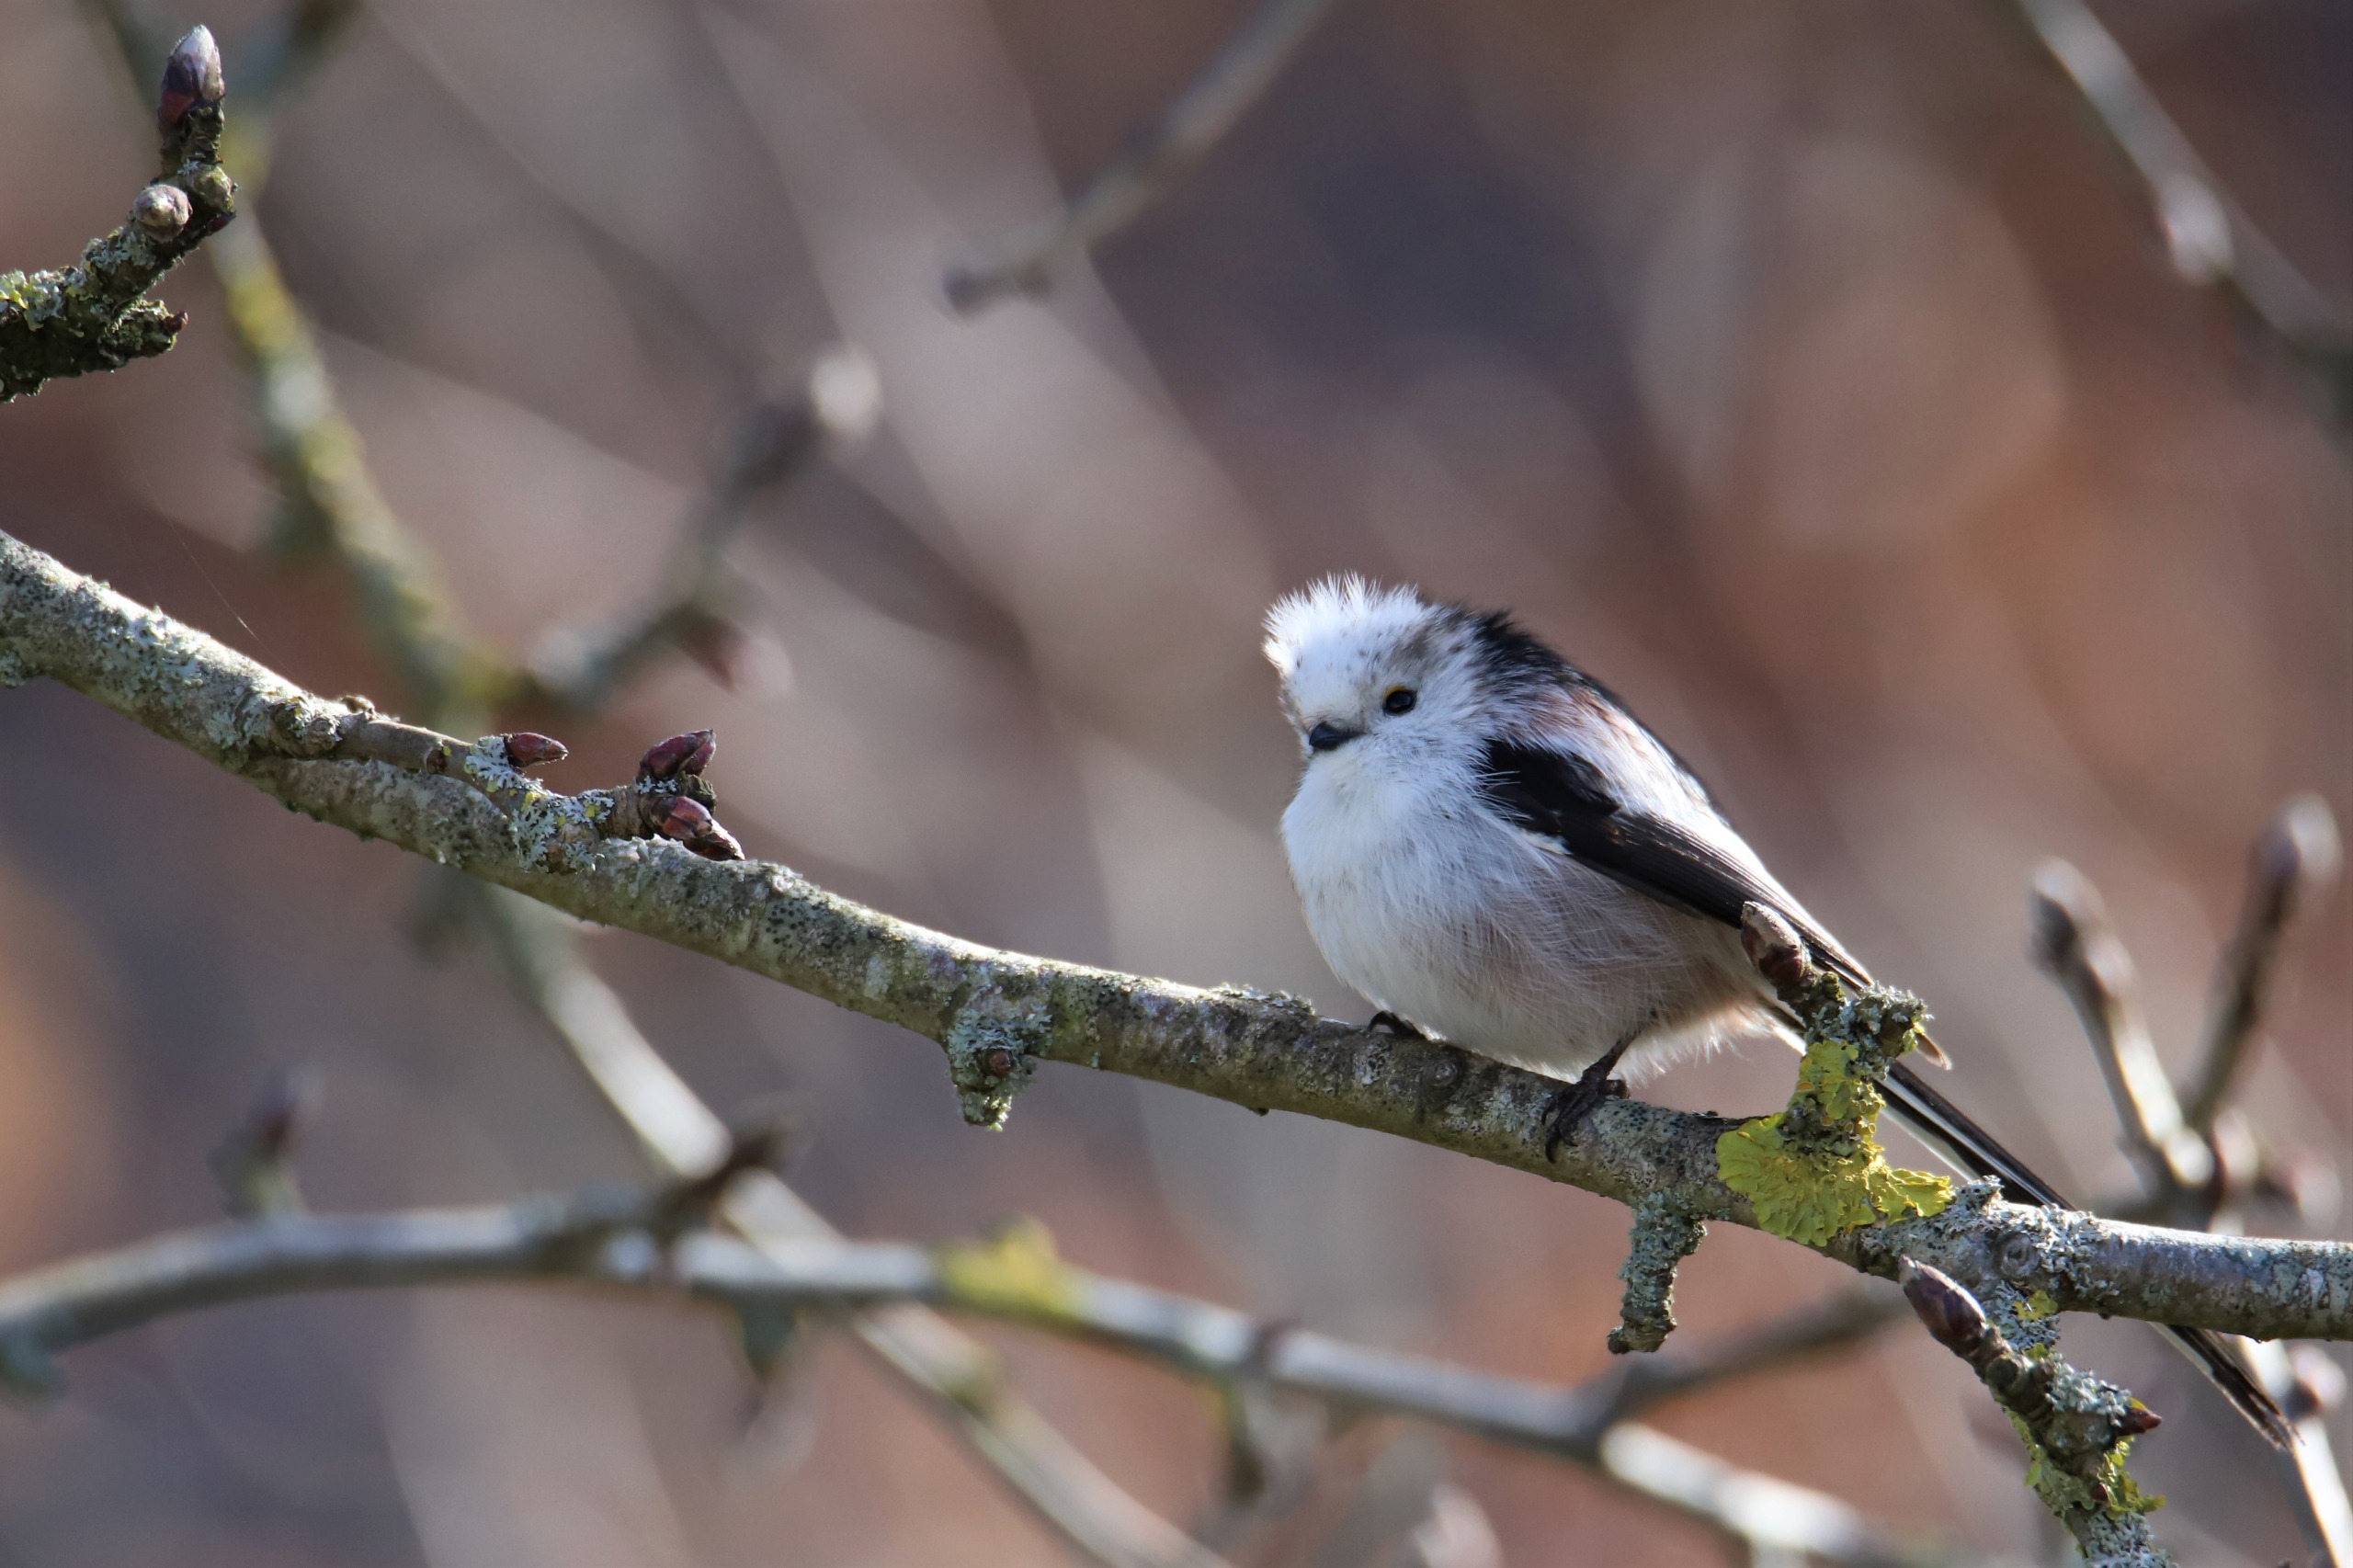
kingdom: Animalia
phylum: Chordata
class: Aves
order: Passeriformes
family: Aegithalidae
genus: Aegithalos
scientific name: Aegithalos caudatus
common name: Halemejse
